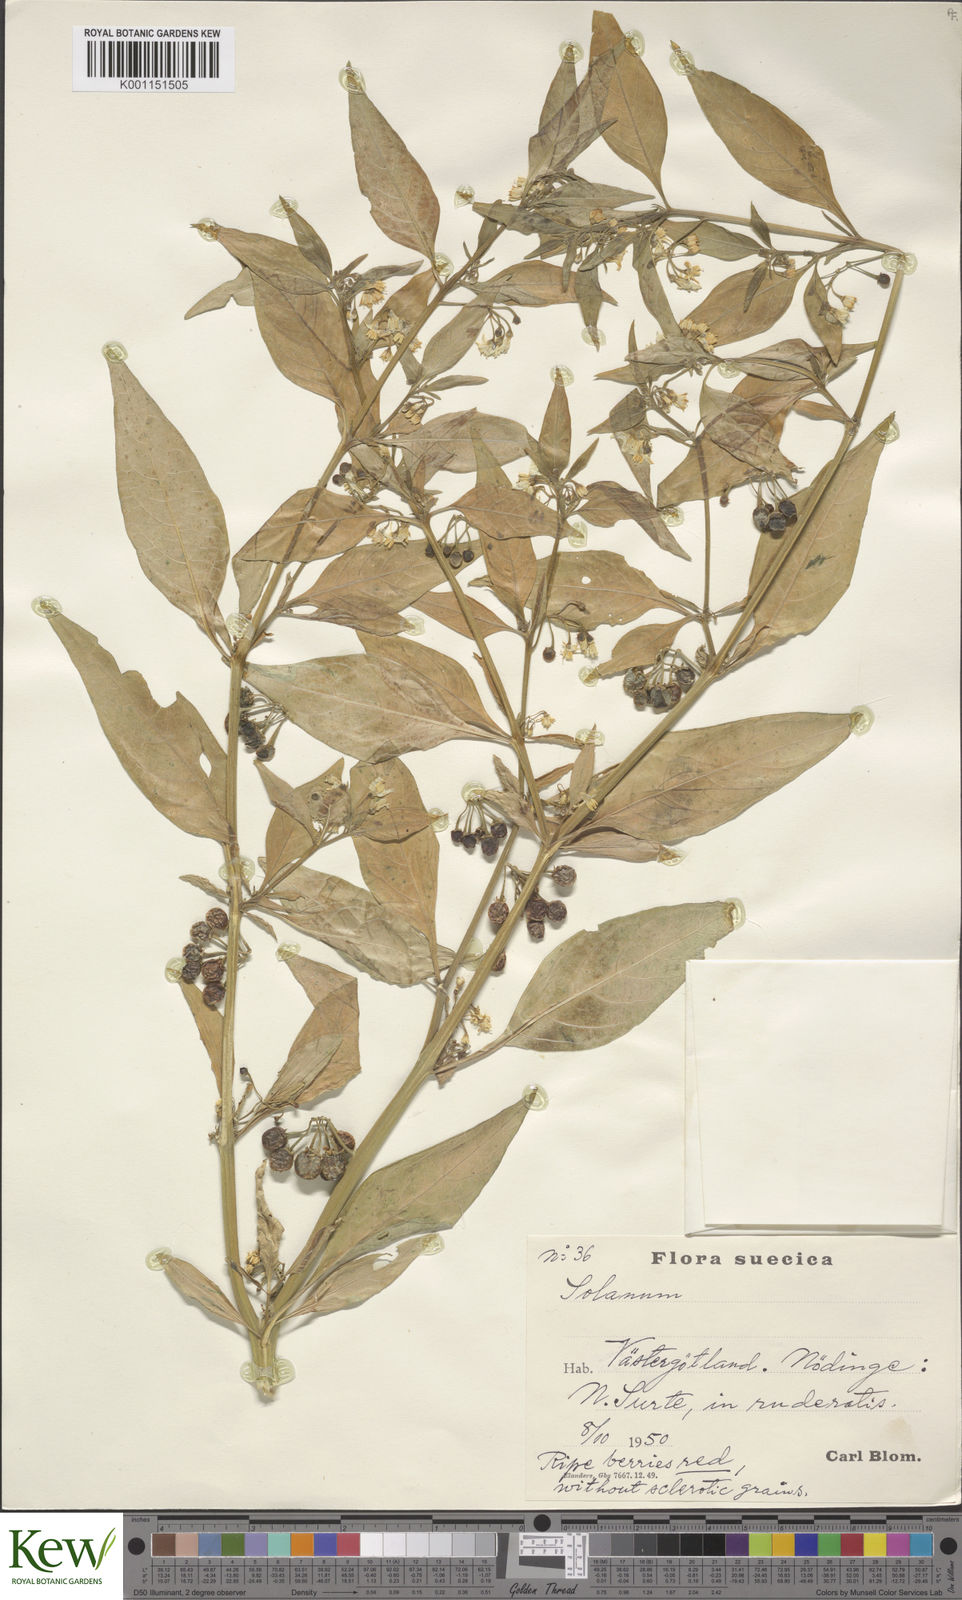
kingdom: Plantae
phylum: Tracheophyta
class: Magnoliopsida
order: Solanales
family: Solanaceae
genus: Solanum
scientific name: Solanum villosum
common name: Red nightshade
